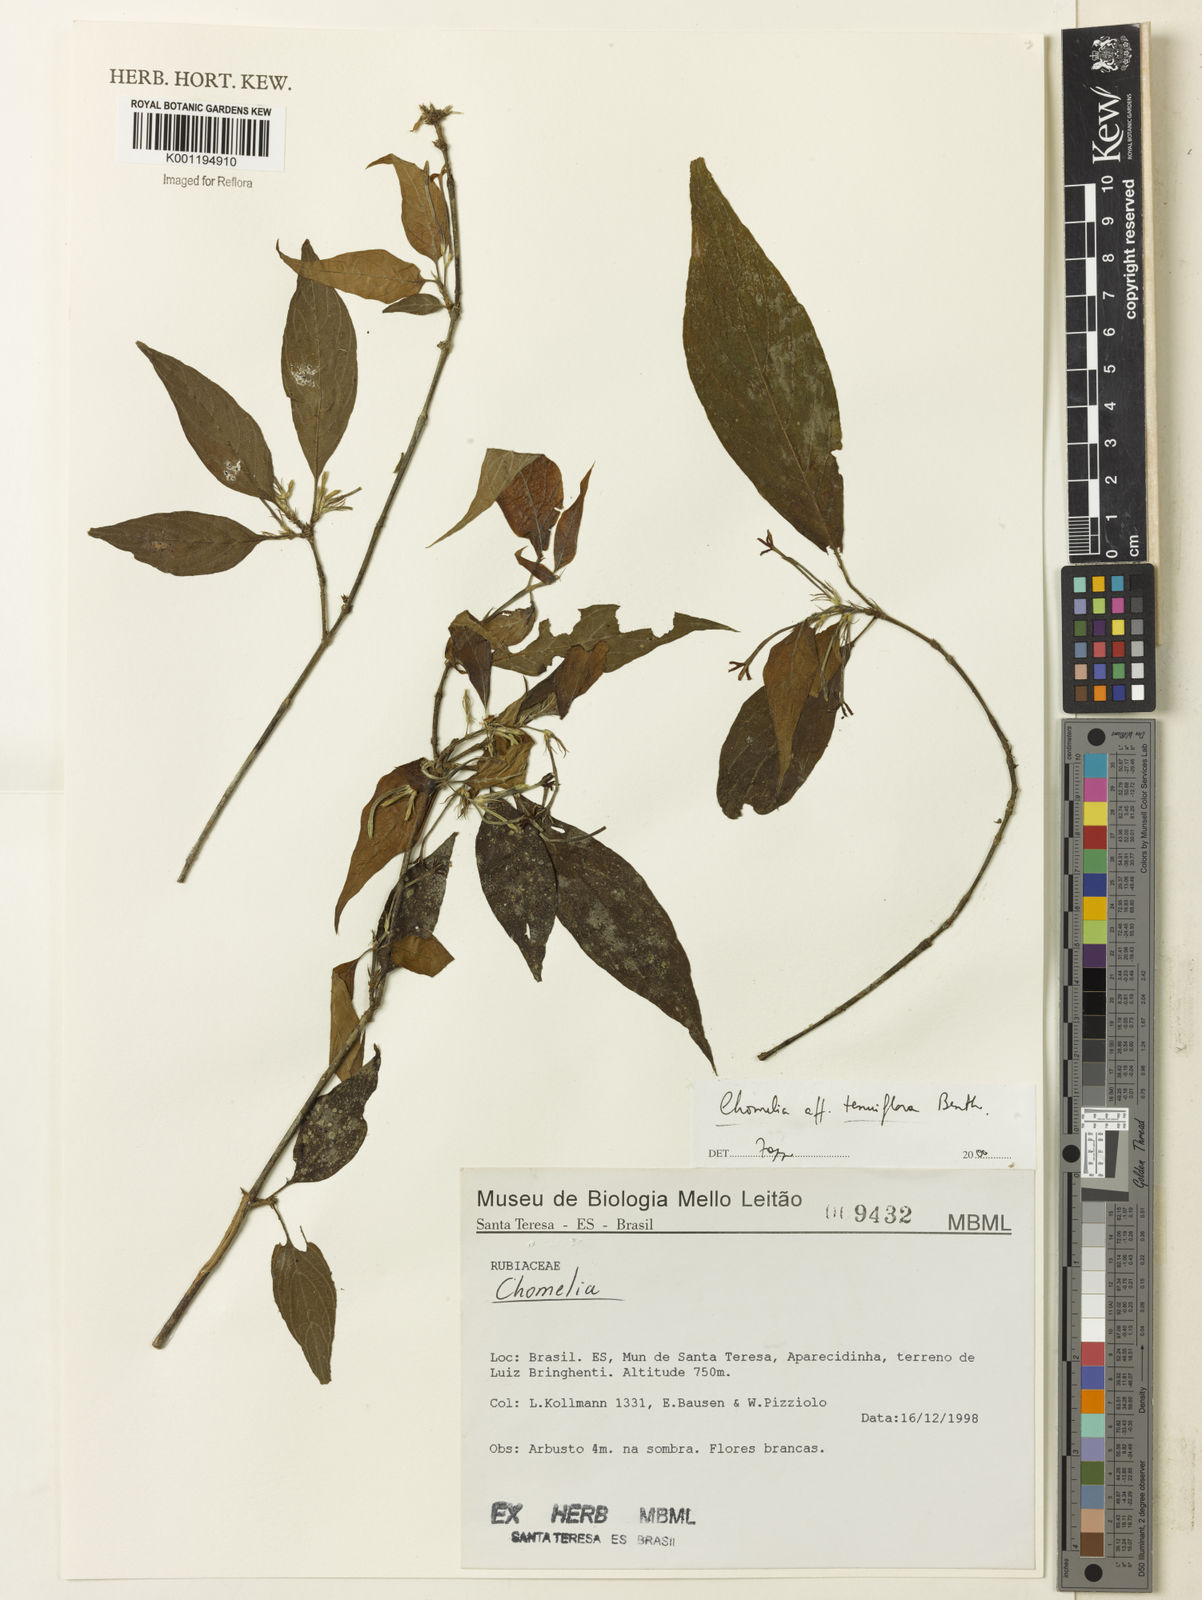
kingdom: Plantae
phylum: Tracheophyta
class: Magnoliopsida
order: Gentianales
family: Rubiaceae
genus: Chomelia
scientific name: Chomelia tenuiflora
